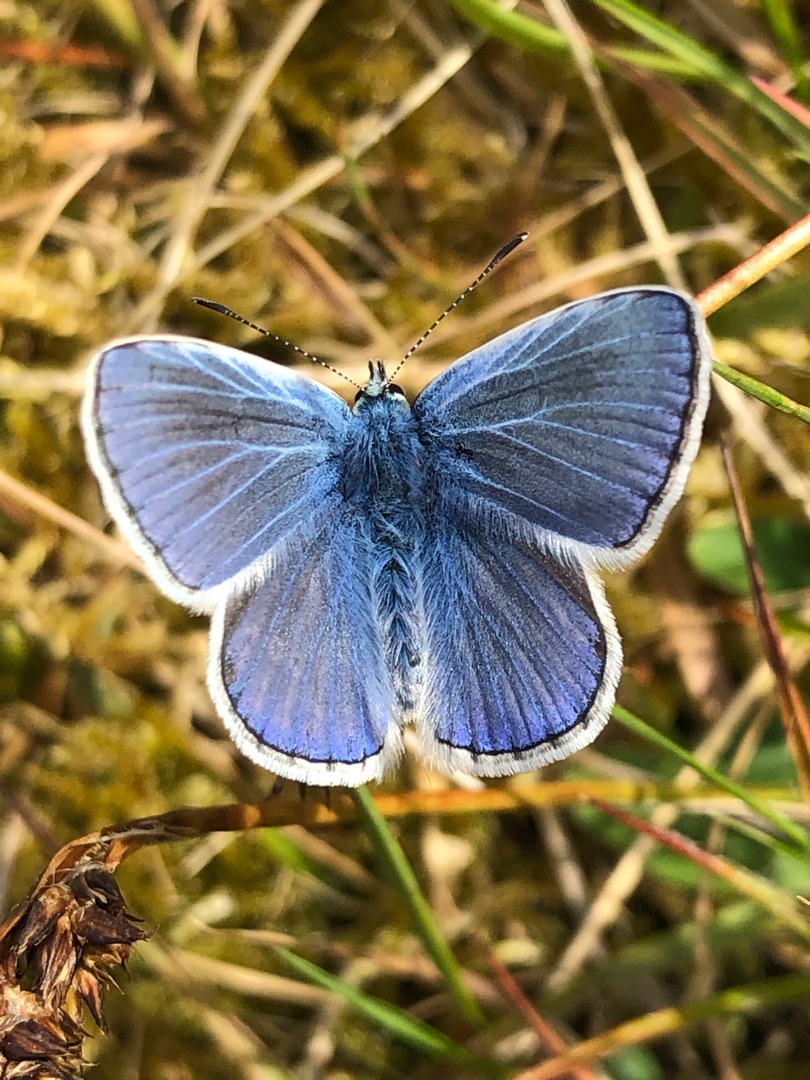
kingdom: Animalia
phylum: Arthropoda
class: Insecta
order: Lepidoptera
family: Lycaenidae
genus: Polyommatus
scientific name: Polyommatus icarus
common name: Almindelig blåfugl
